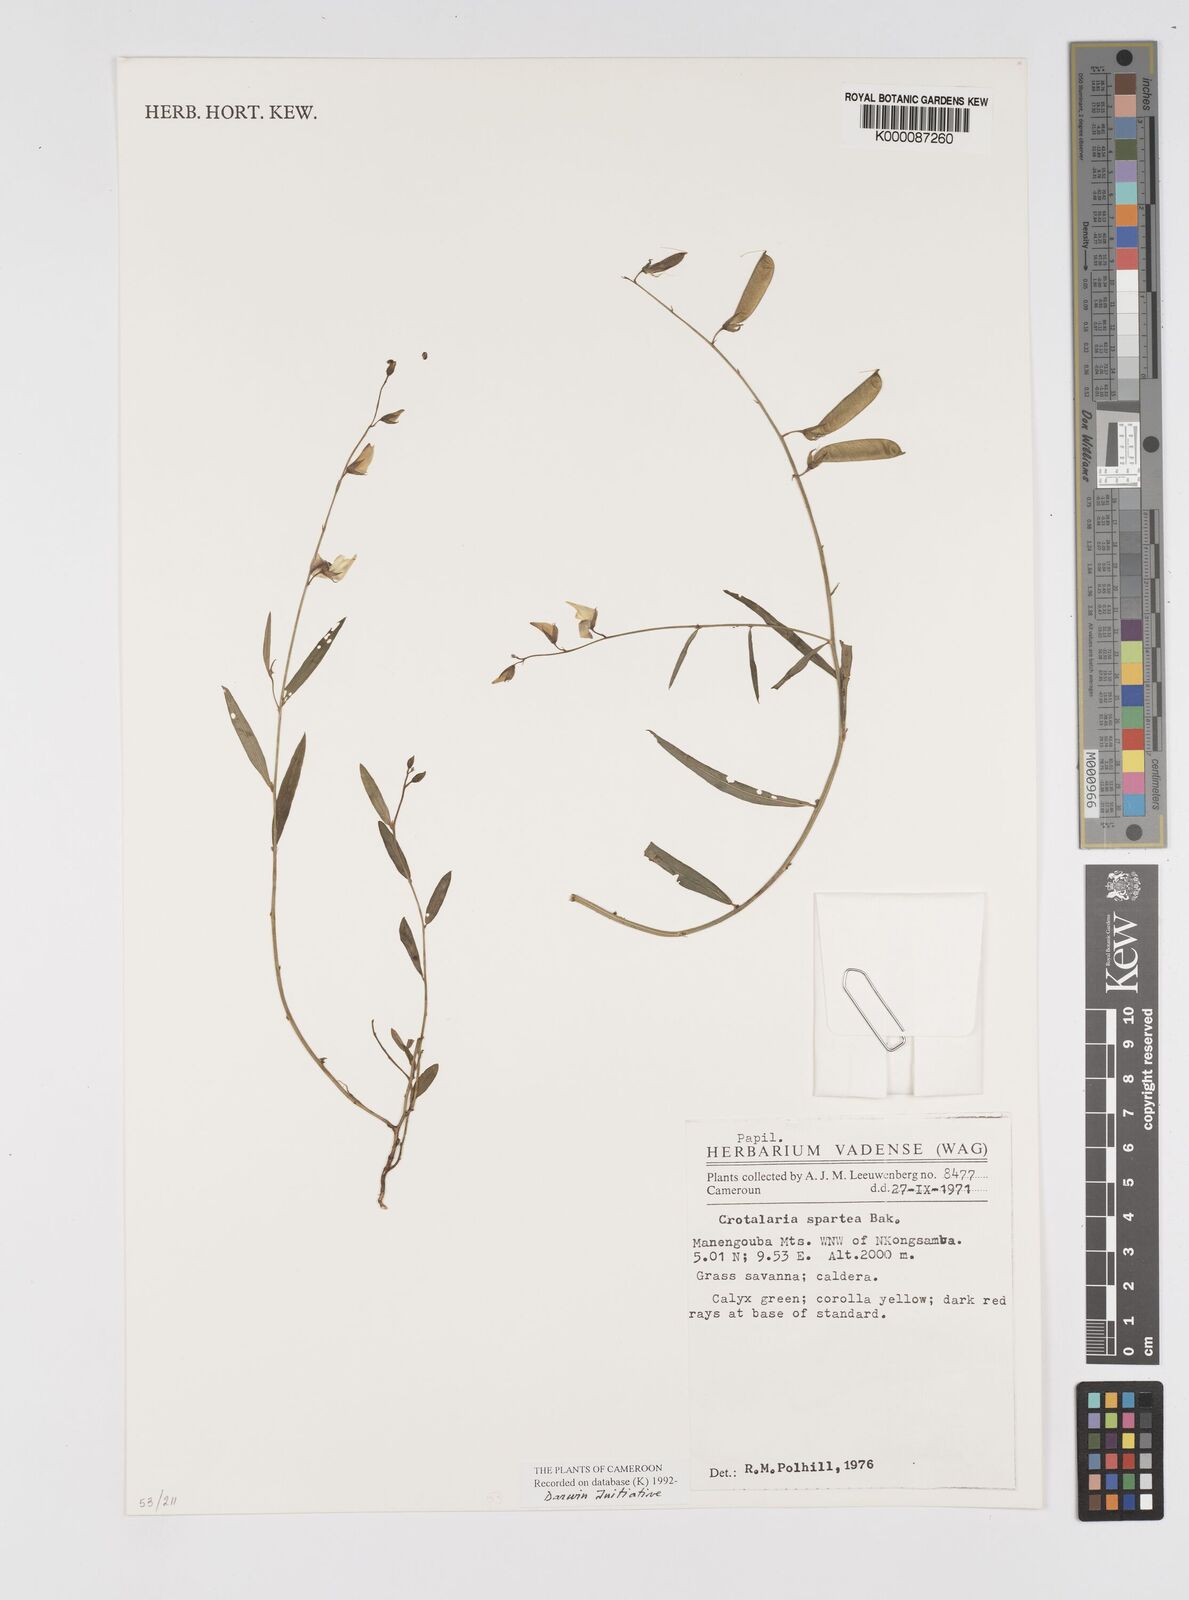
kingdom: Plantae
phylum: Tracheophyta
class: Magnoliopsida
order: Fabales
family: Fabaceae
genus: Crotalaria
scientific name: Crotalaria spartea
